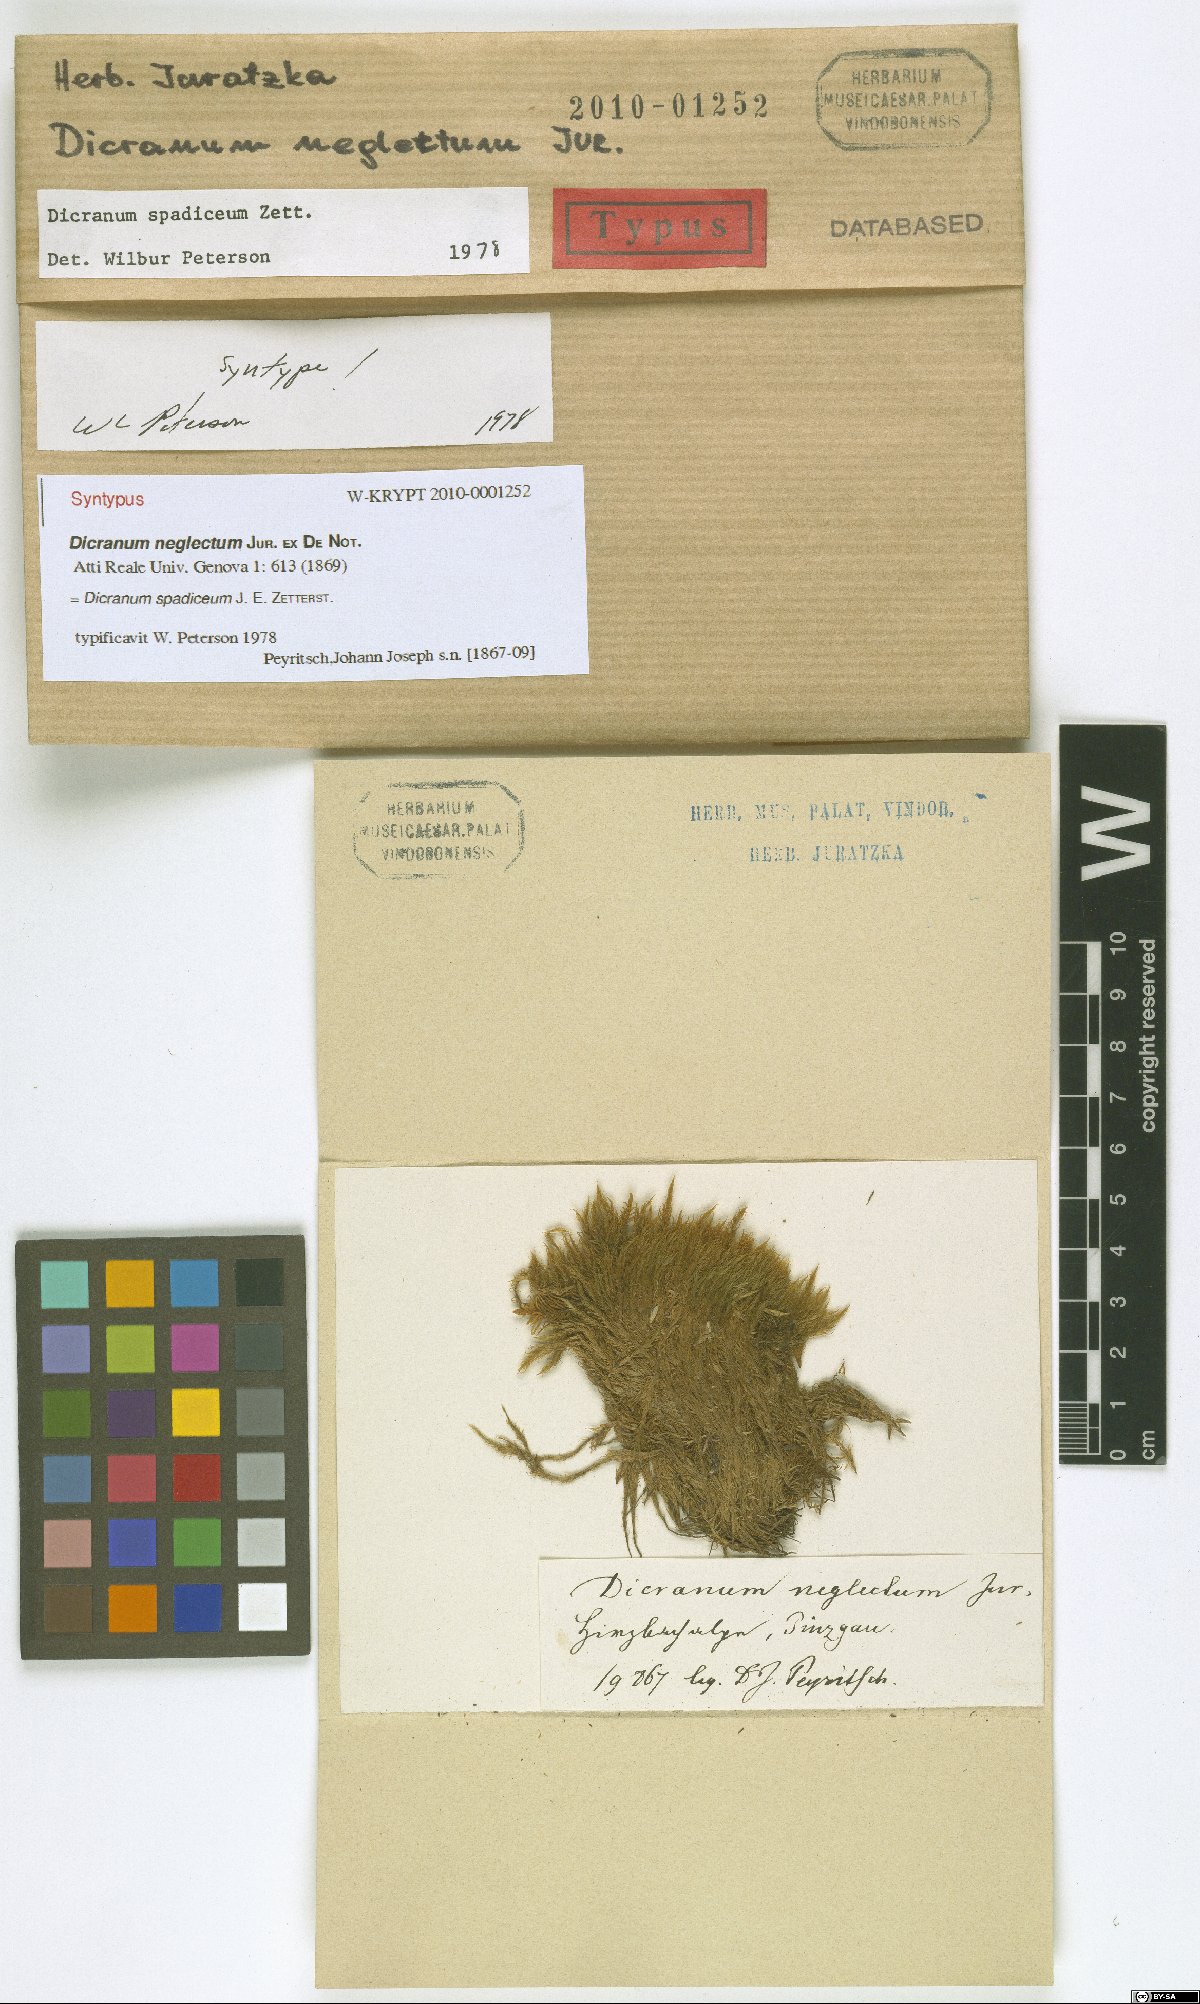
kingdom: Plantae
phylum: Bryophyta
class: Bryopsida
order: Dicranales
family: Dicranaceae
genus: Dicranum
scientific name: Dicranum spadiceum
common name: Confusing broom moss
